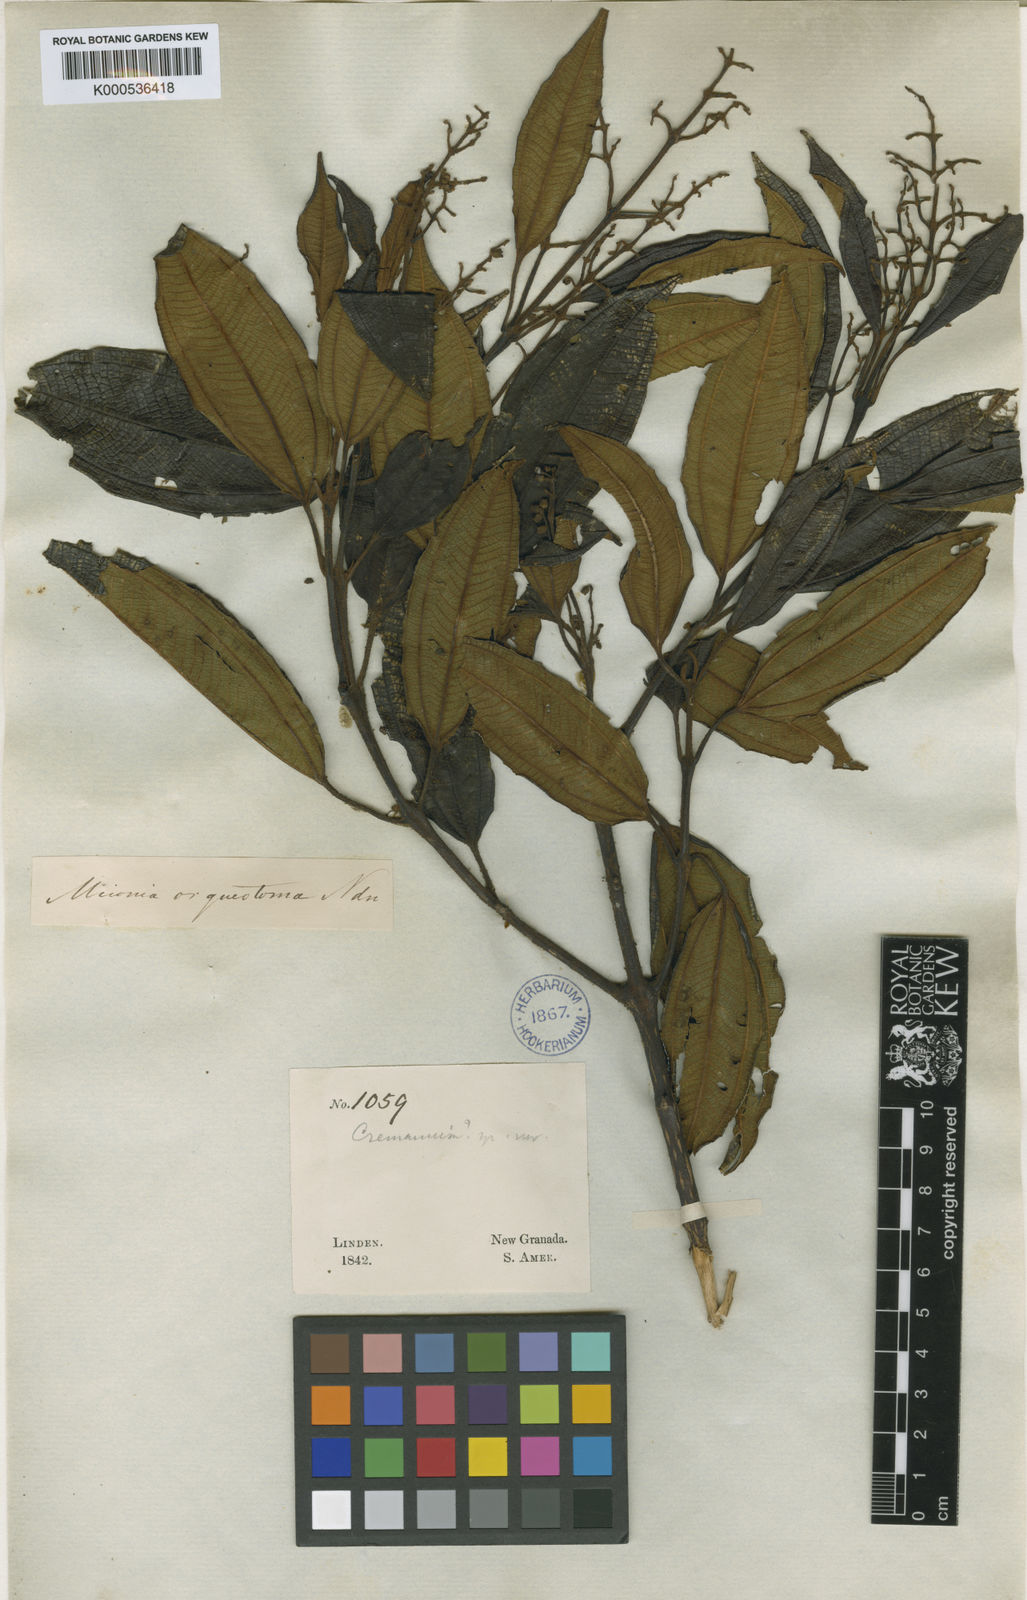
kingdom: Plantae
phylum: Tracheophyta
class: Magnoliopsida
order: Myrtales
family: Melastomataceae
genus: Miconia
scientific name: Miconia orcheotoma
